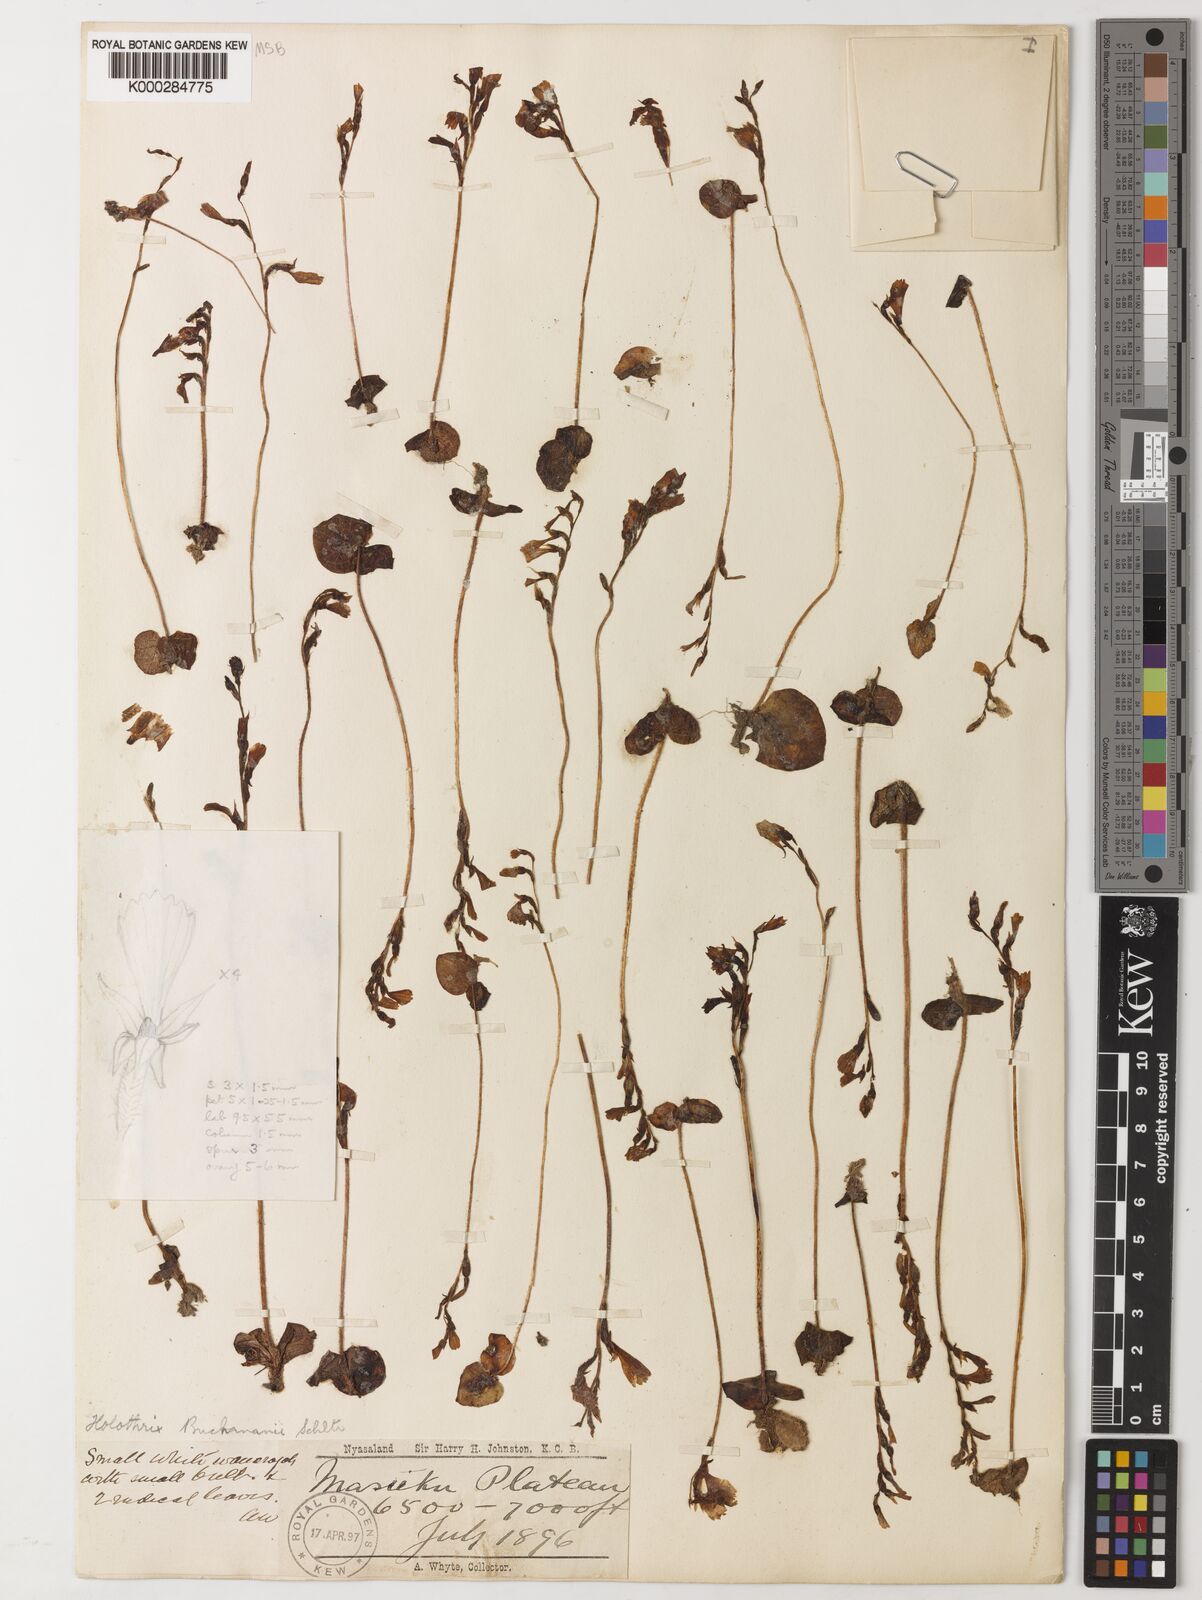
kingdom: Plantae
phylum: Tracheophyta
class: Liliopsida
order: Asparagales
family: Orchidaceae
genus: Holothrix
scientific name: Holothrix buchananii
